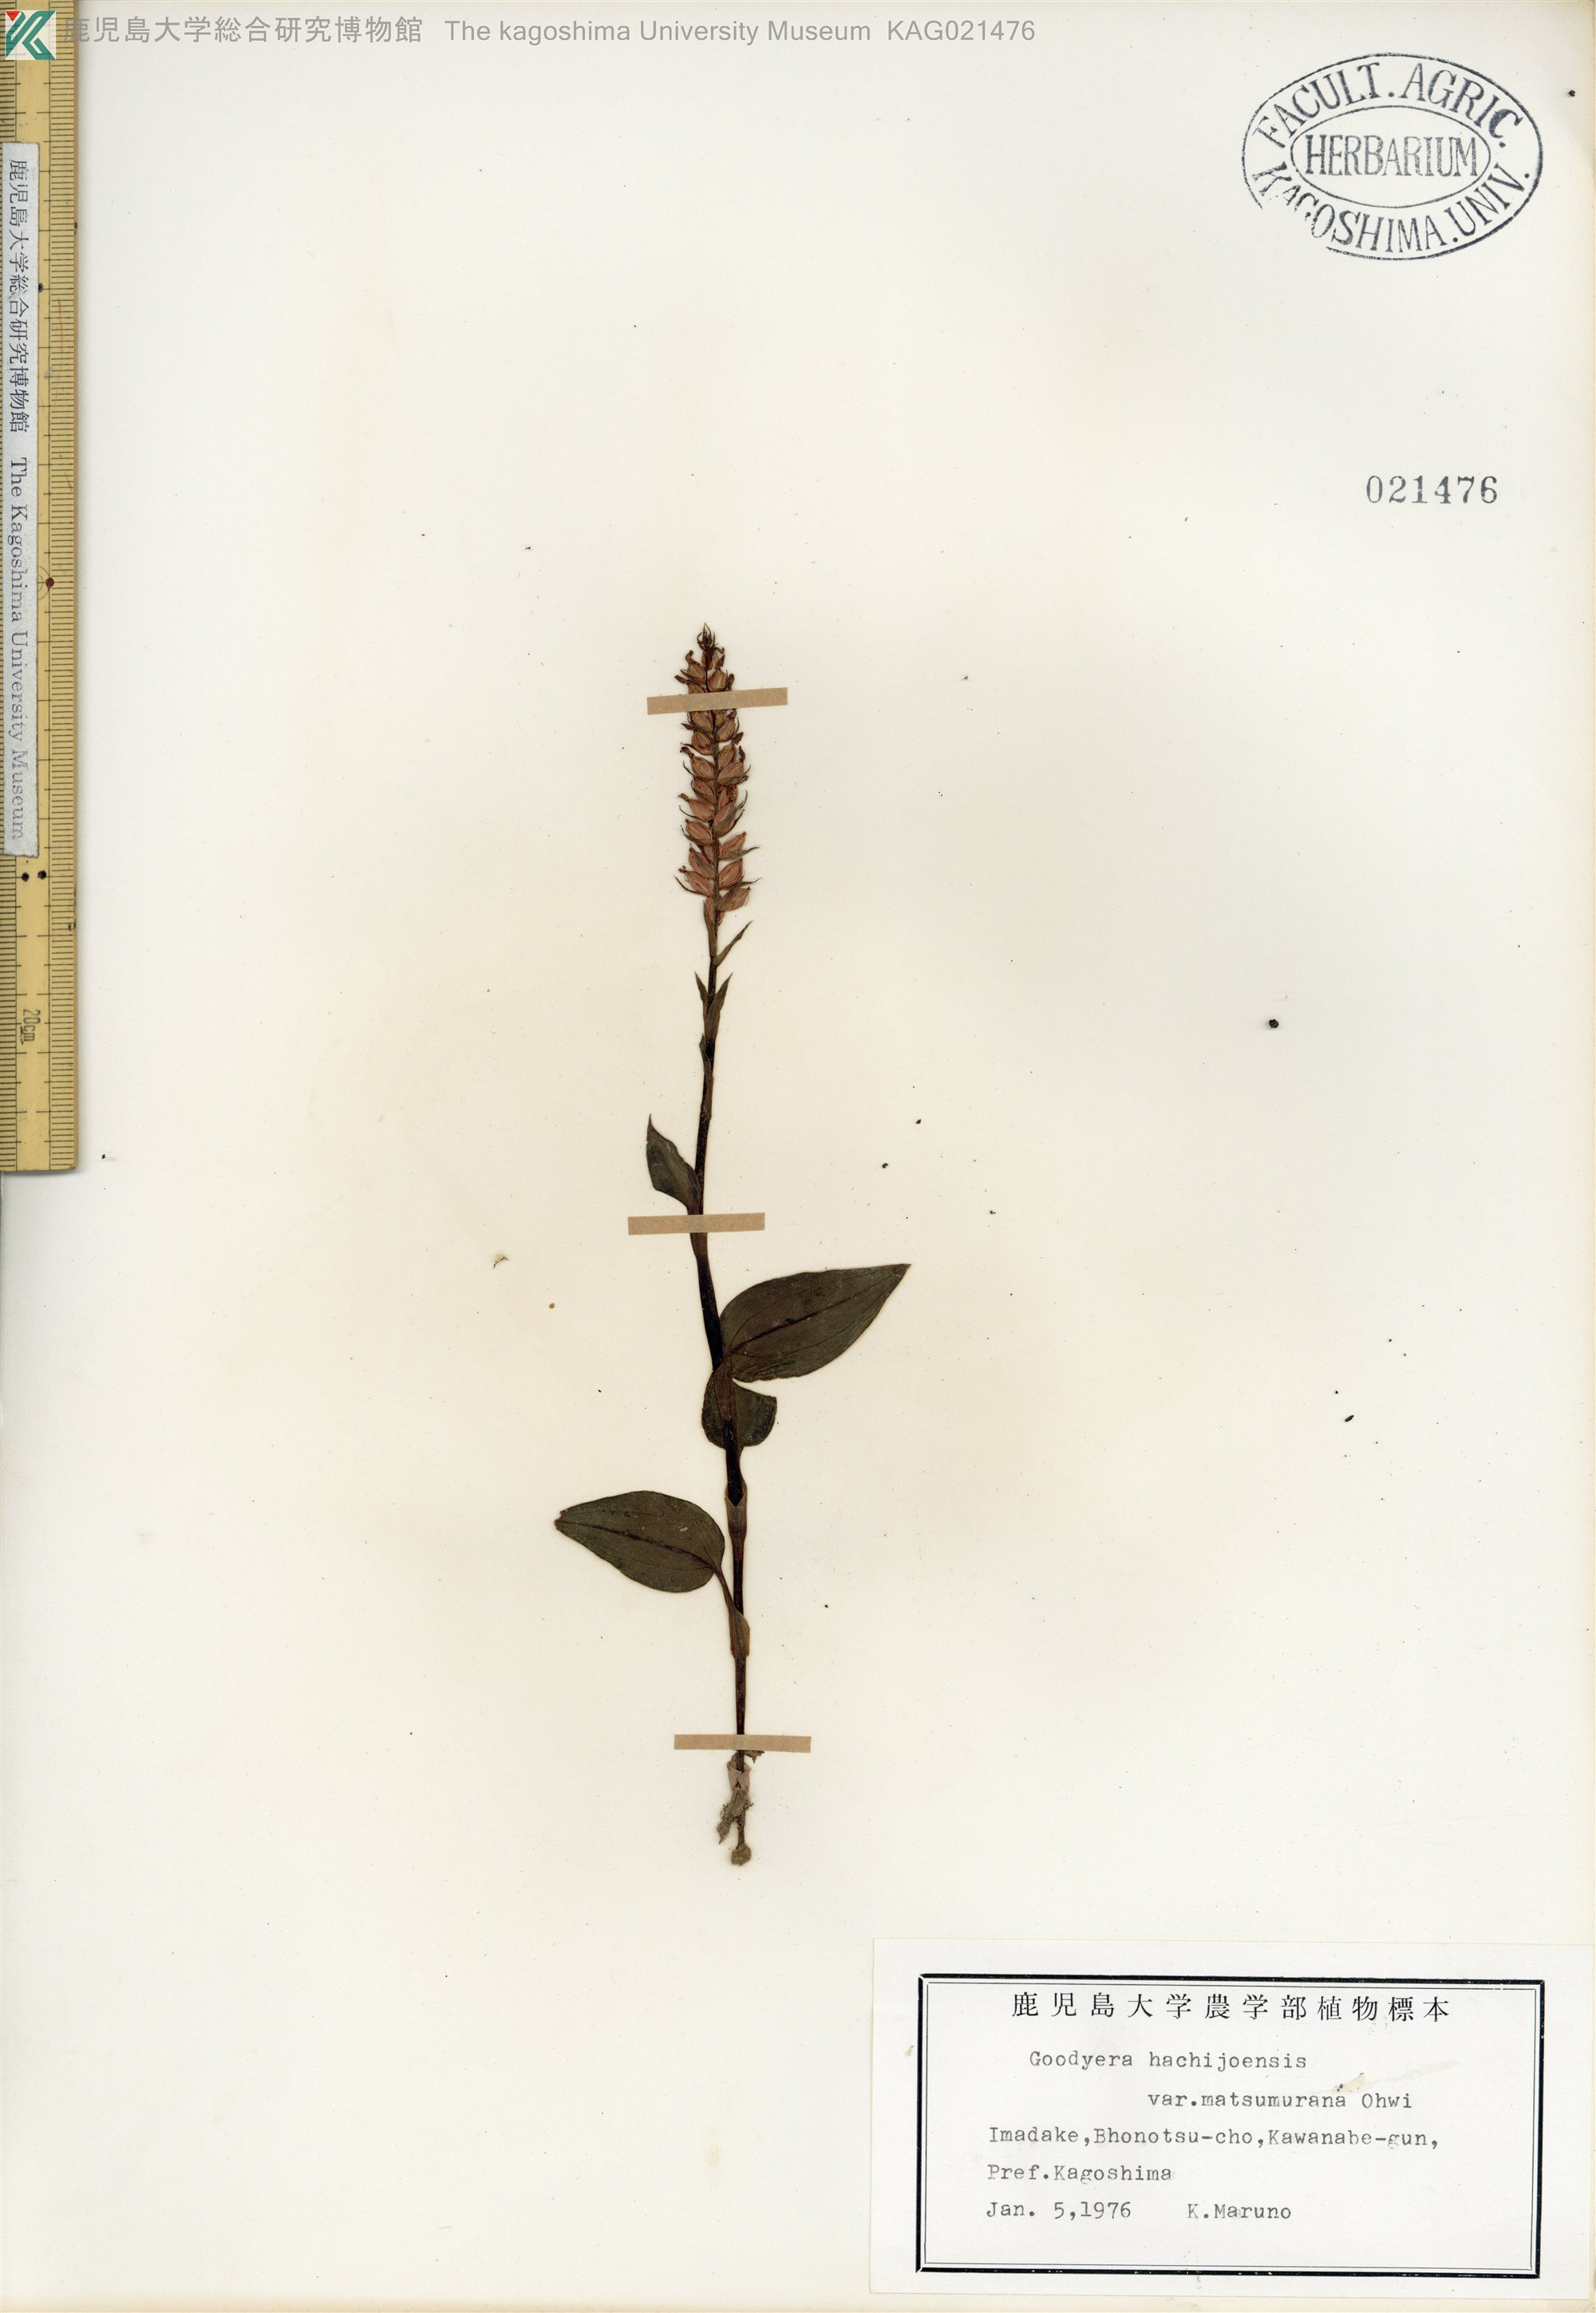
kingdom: Plantae
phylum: Tracheophyta
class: Liliopsida
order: Asparagales
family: Orchidaceae
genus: Goodyera
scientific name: Goodyera hachijoensis
